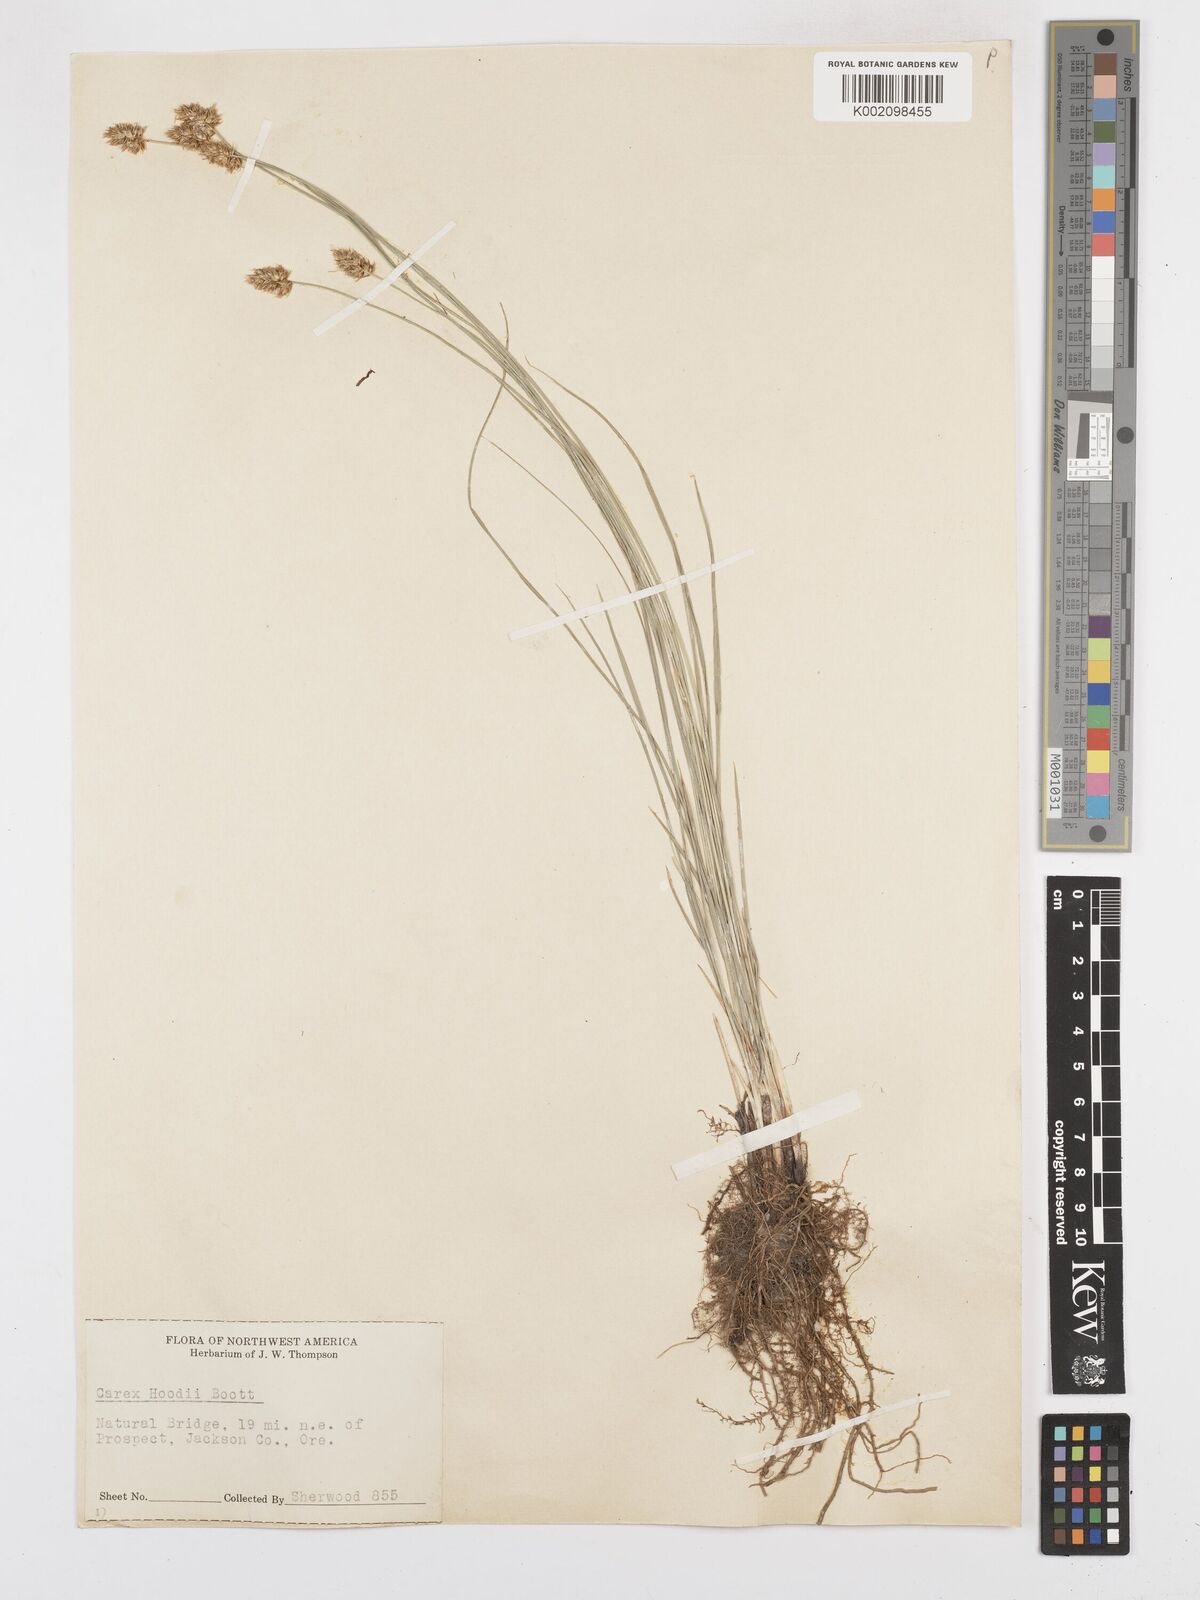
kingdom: Plantae
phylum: Tracheophyta
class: Liliopsida
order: Poales
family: Cyperaceae
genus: Carex
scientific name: Carex hoodii
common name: Hood's sedge
